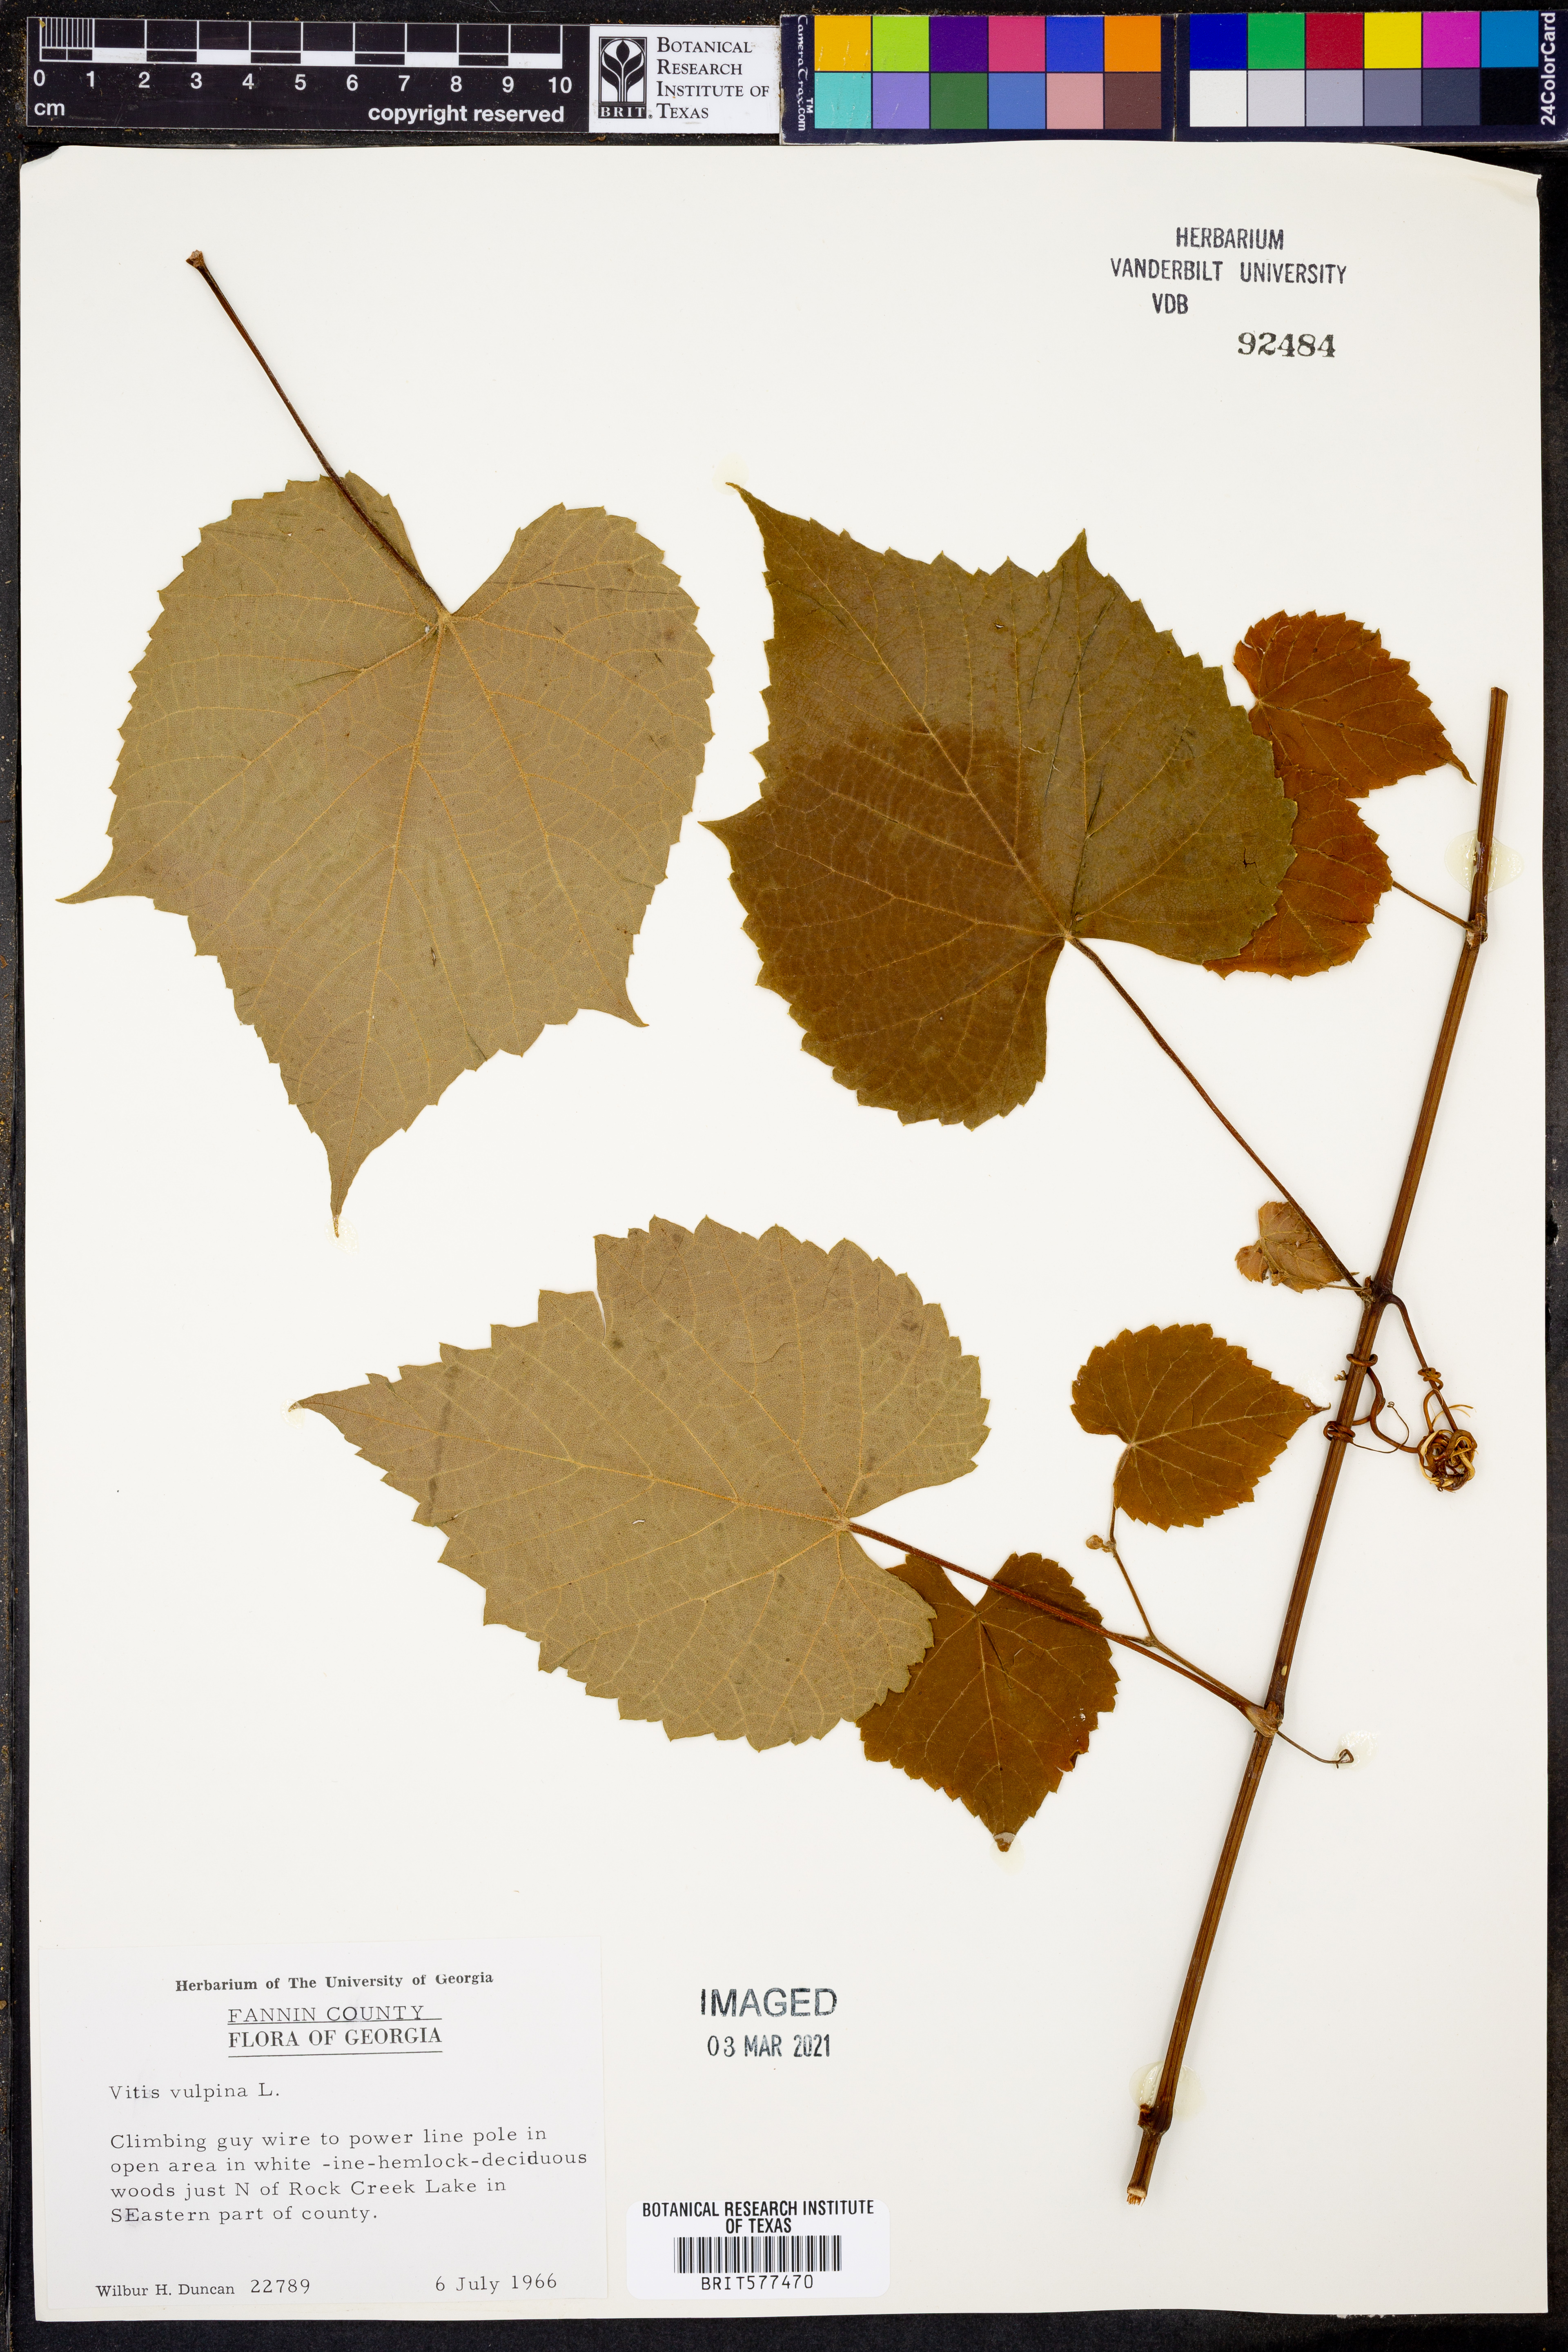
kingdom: Plantae
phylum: Tracheophyta
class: Magnoliopsida
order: Vitales
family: Vitaceae
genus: Vitis
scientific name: Vitis vulpina
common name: Frost grape
